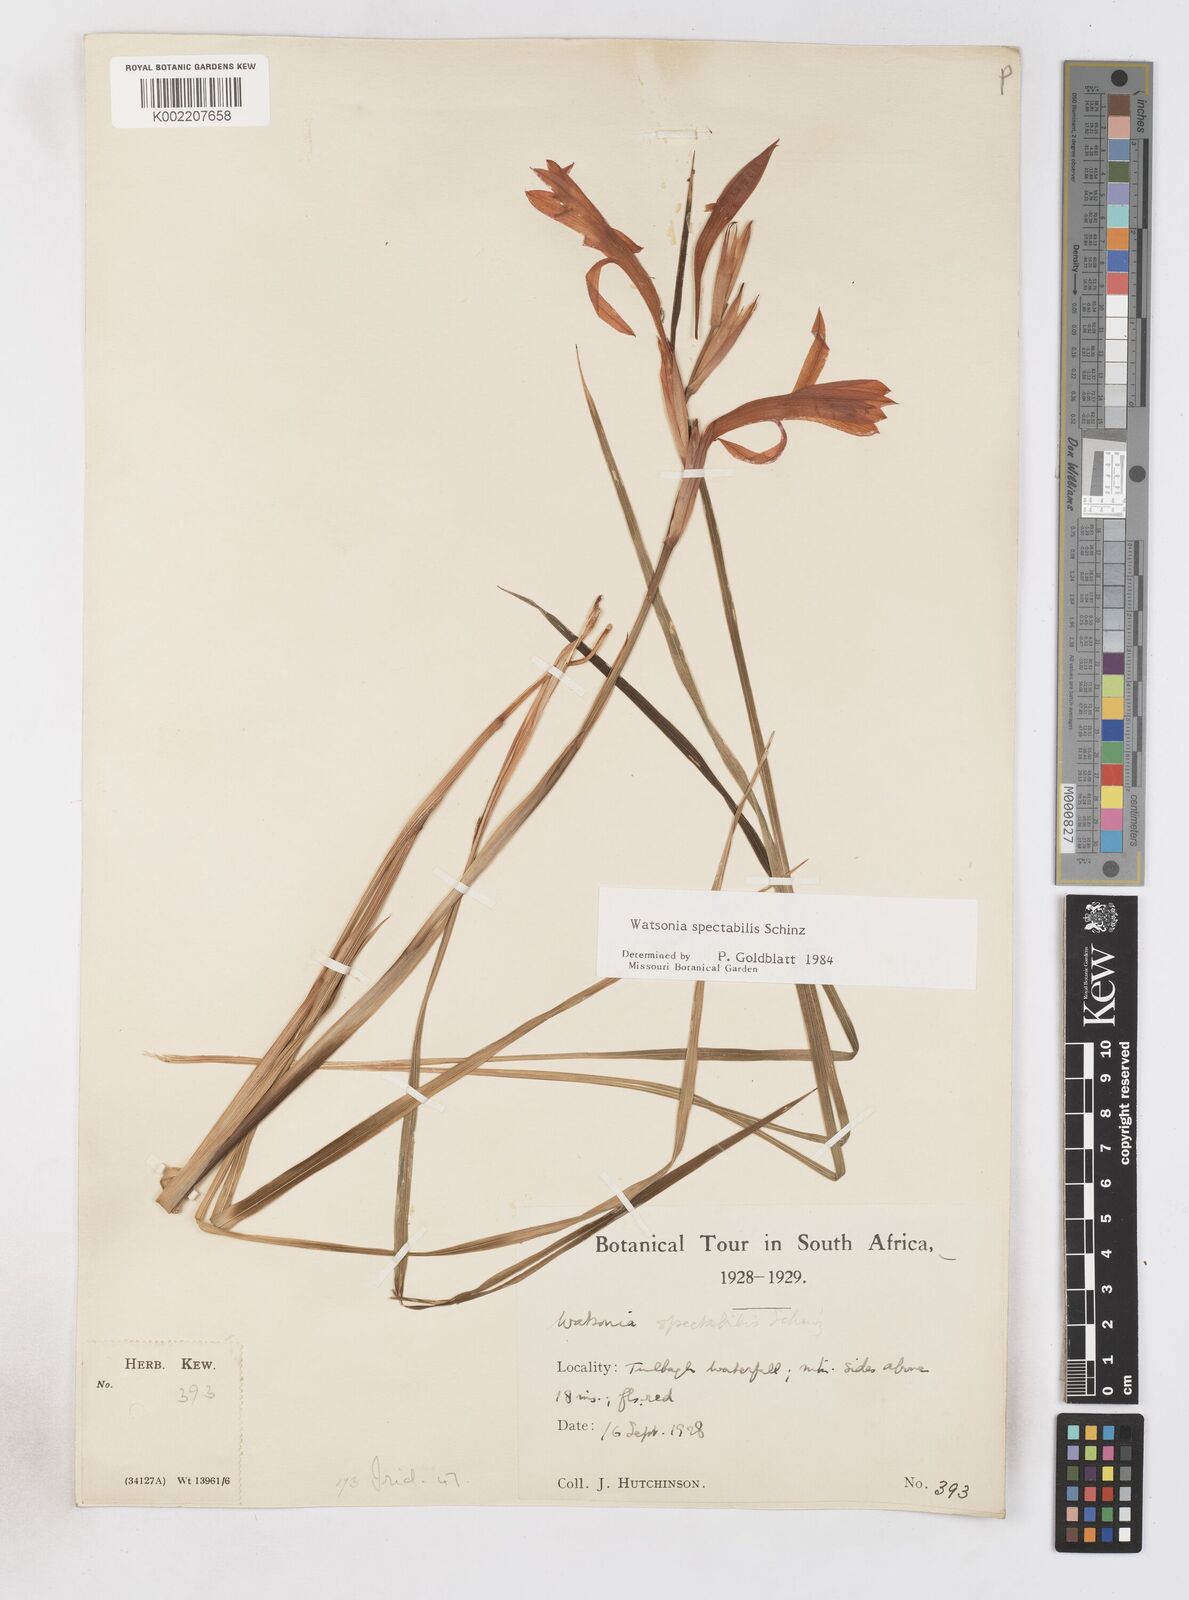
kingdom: Plantae
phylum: Tracheophyta
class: Liliopsida
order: Asparagales
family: Iridaceae
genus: Watsonia
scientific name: Watsonia spectabilis
